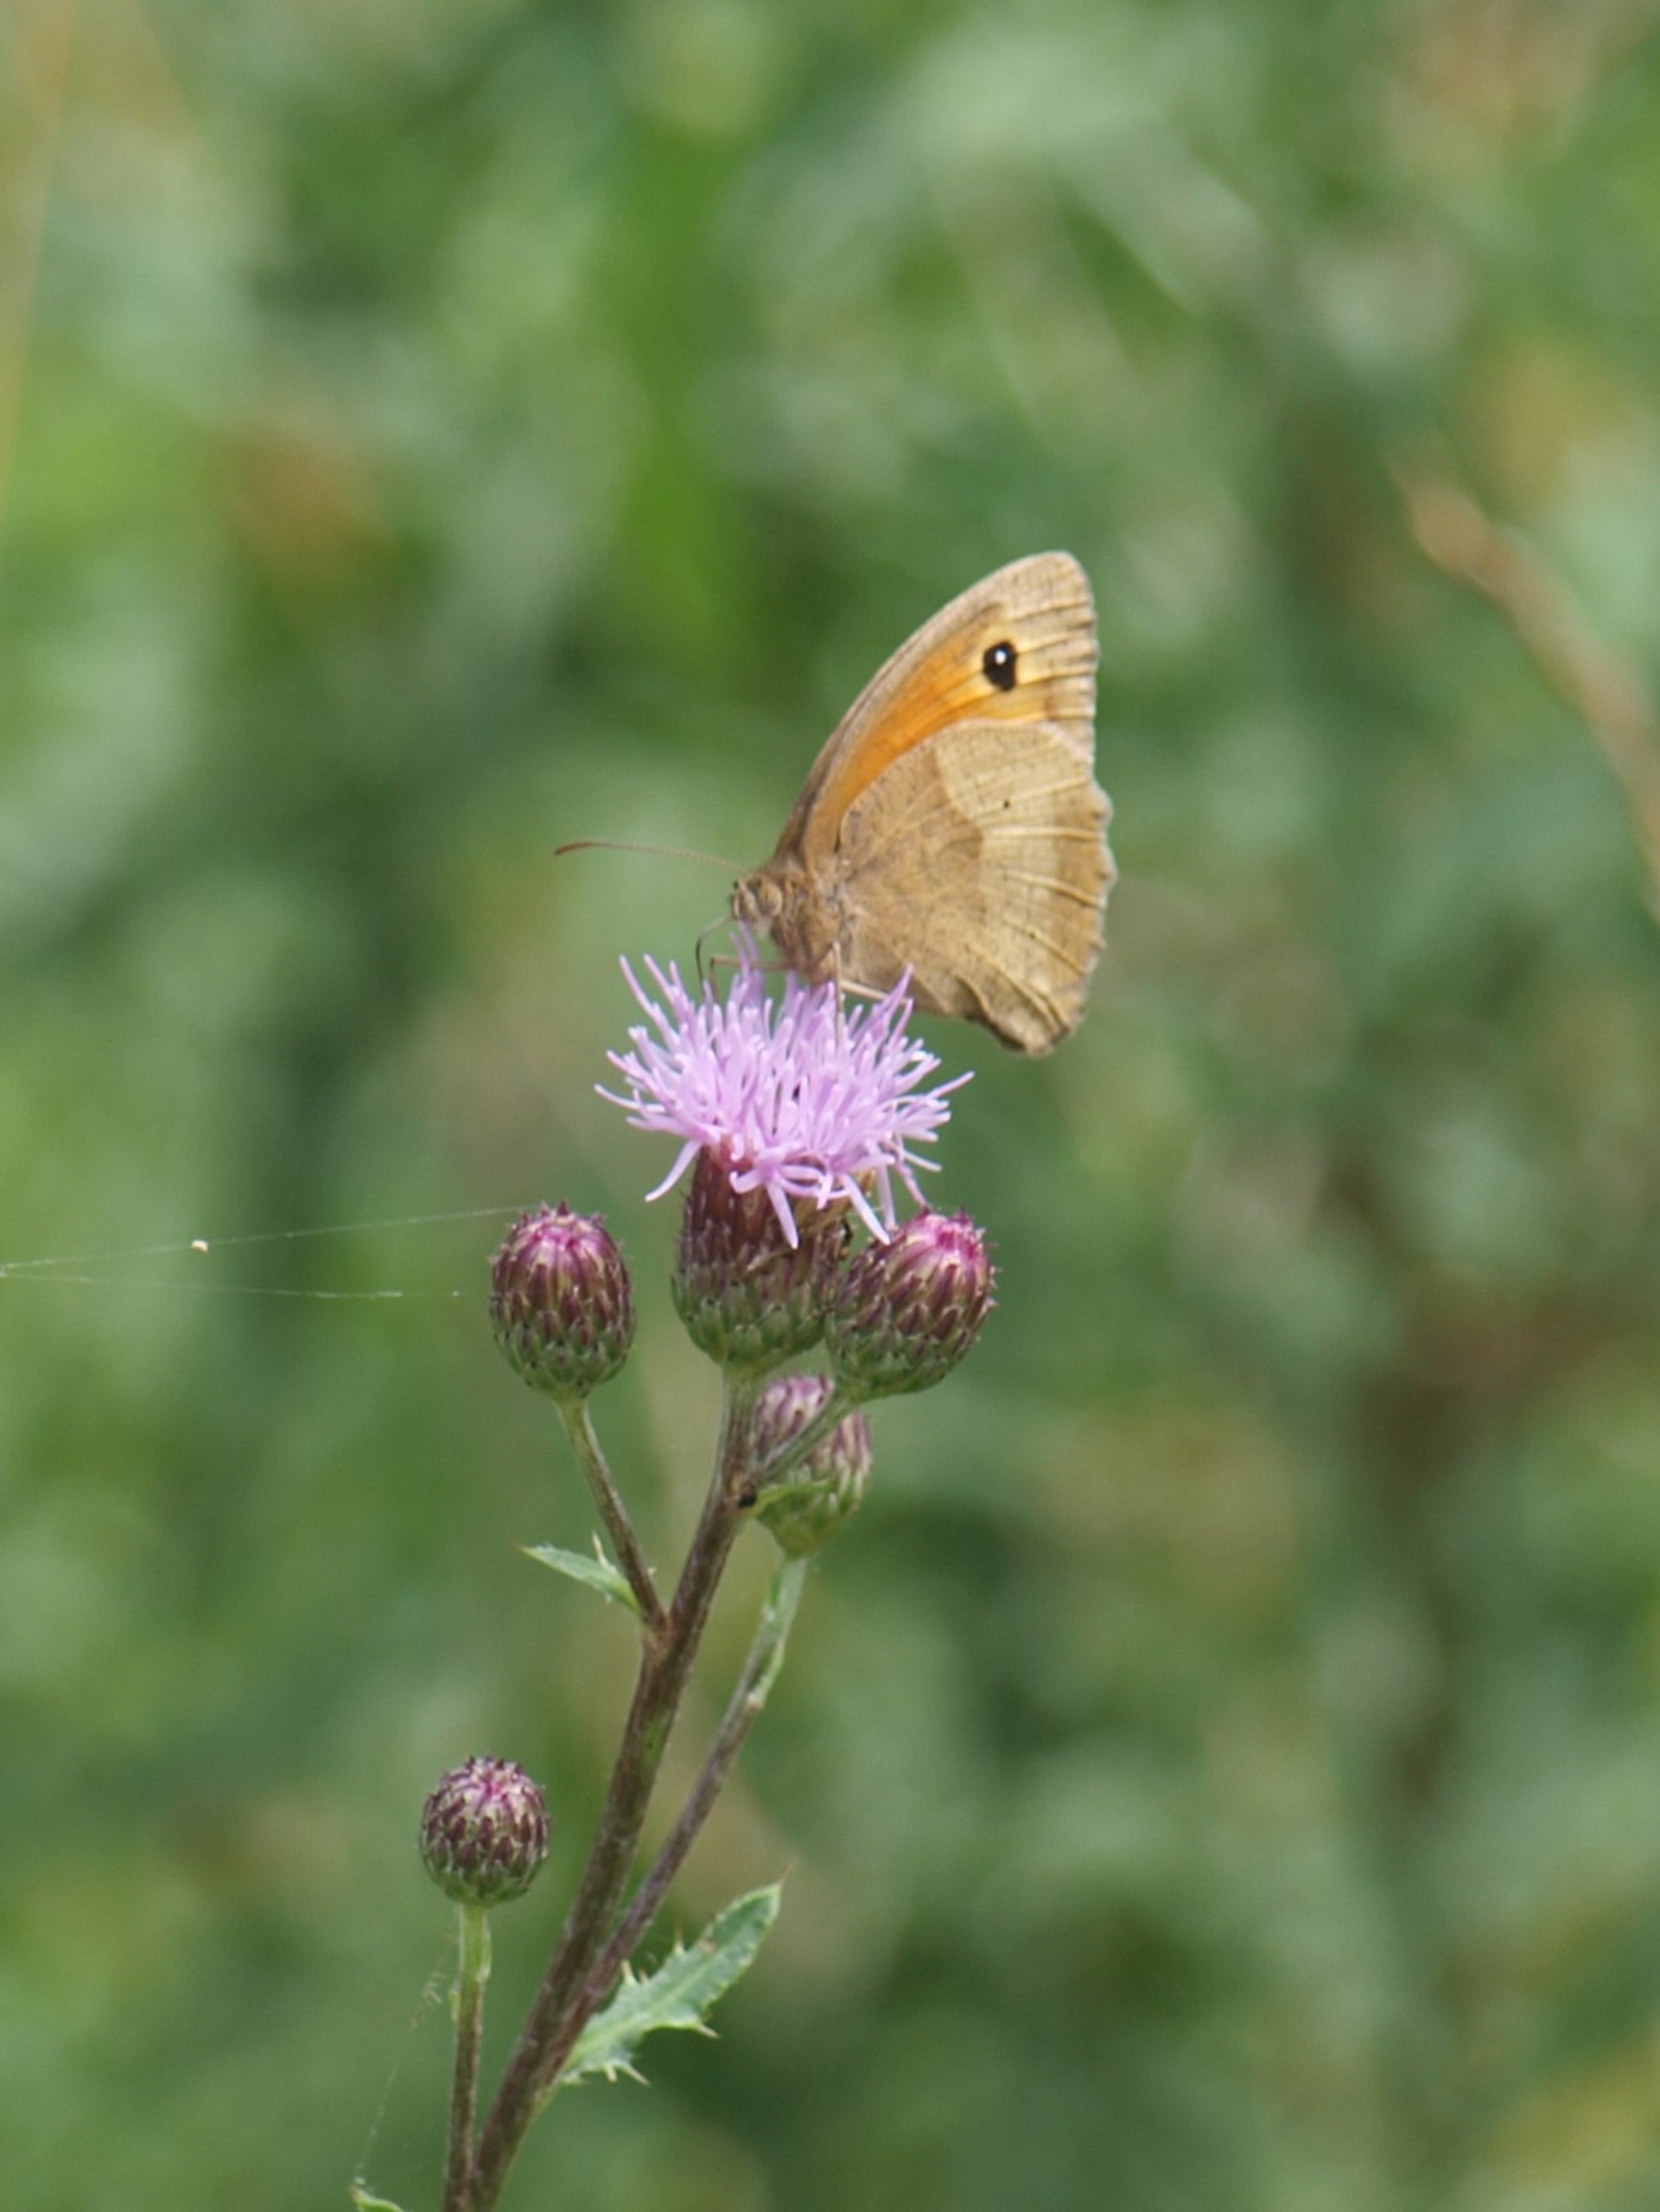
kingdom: Animalia
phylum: Arthropoda
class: Insecta
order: Lepidoptera
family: Nymphalidae
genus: Maniola
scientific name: Maniola jurtina
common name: Græsrandøje
